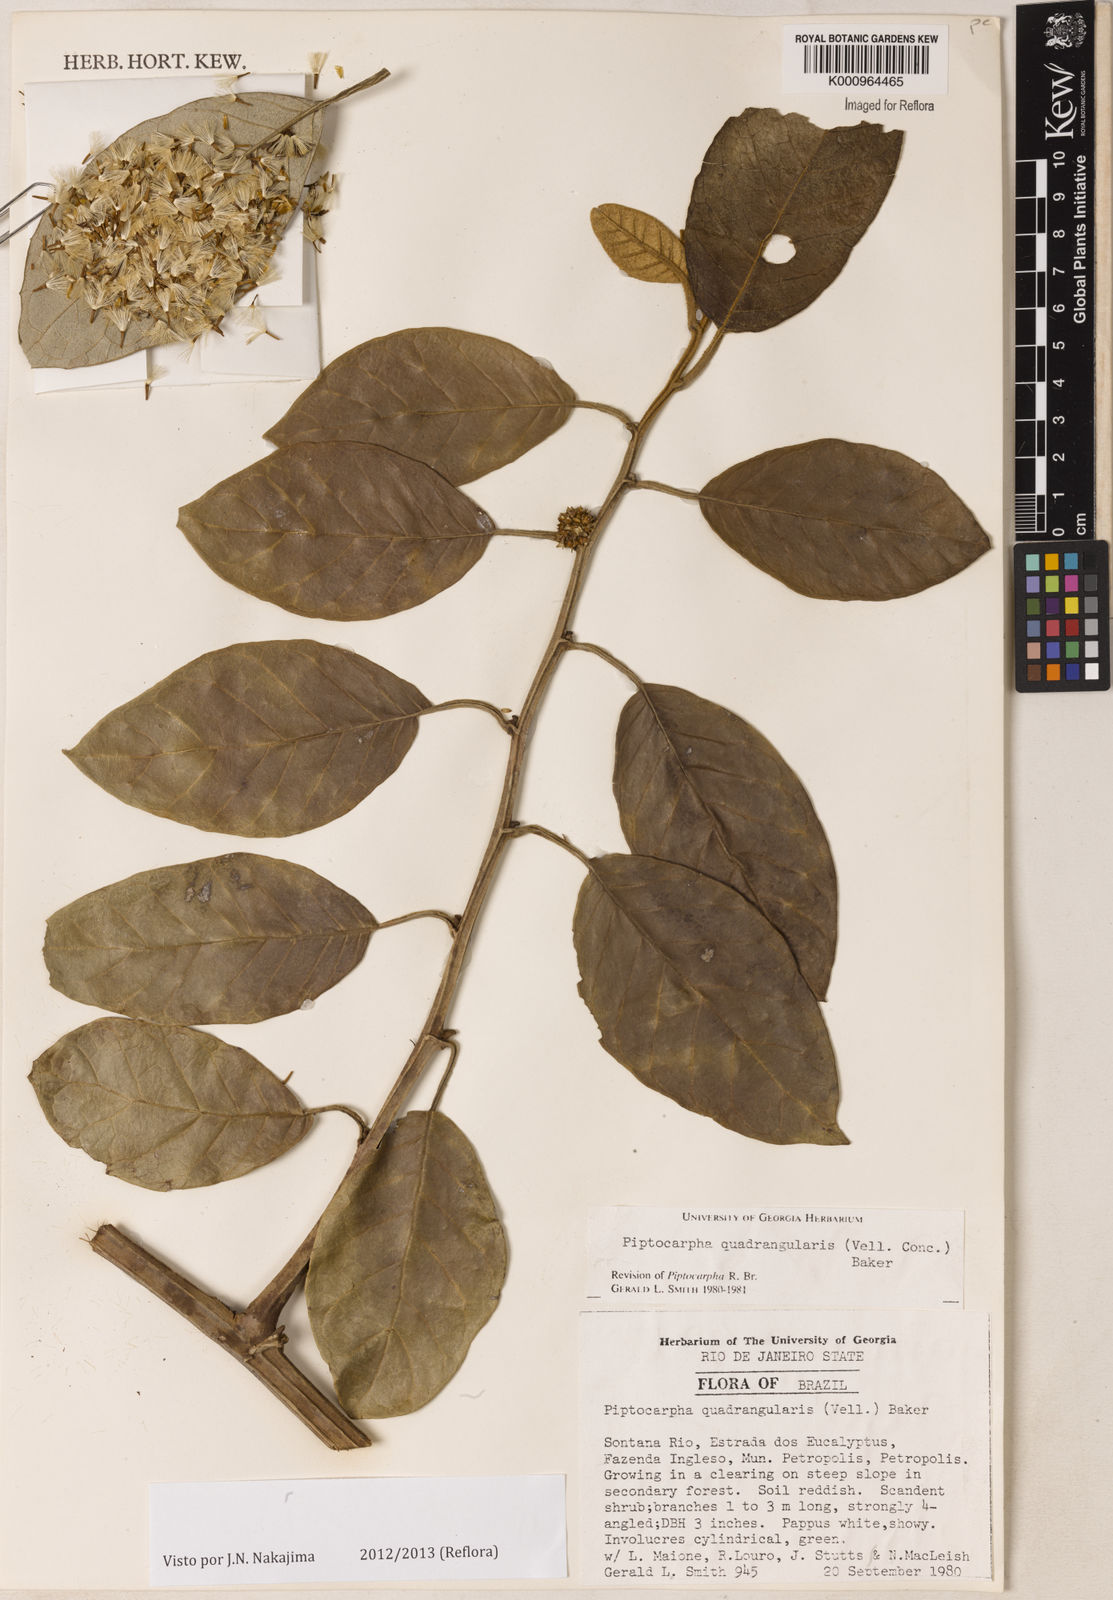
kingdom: Plantae
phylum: Tracheophyta
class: Magnoliopsida
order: Asterales
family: Asteraceae
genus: Piptocarpha
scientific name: Piptocarpha quadrangularis
